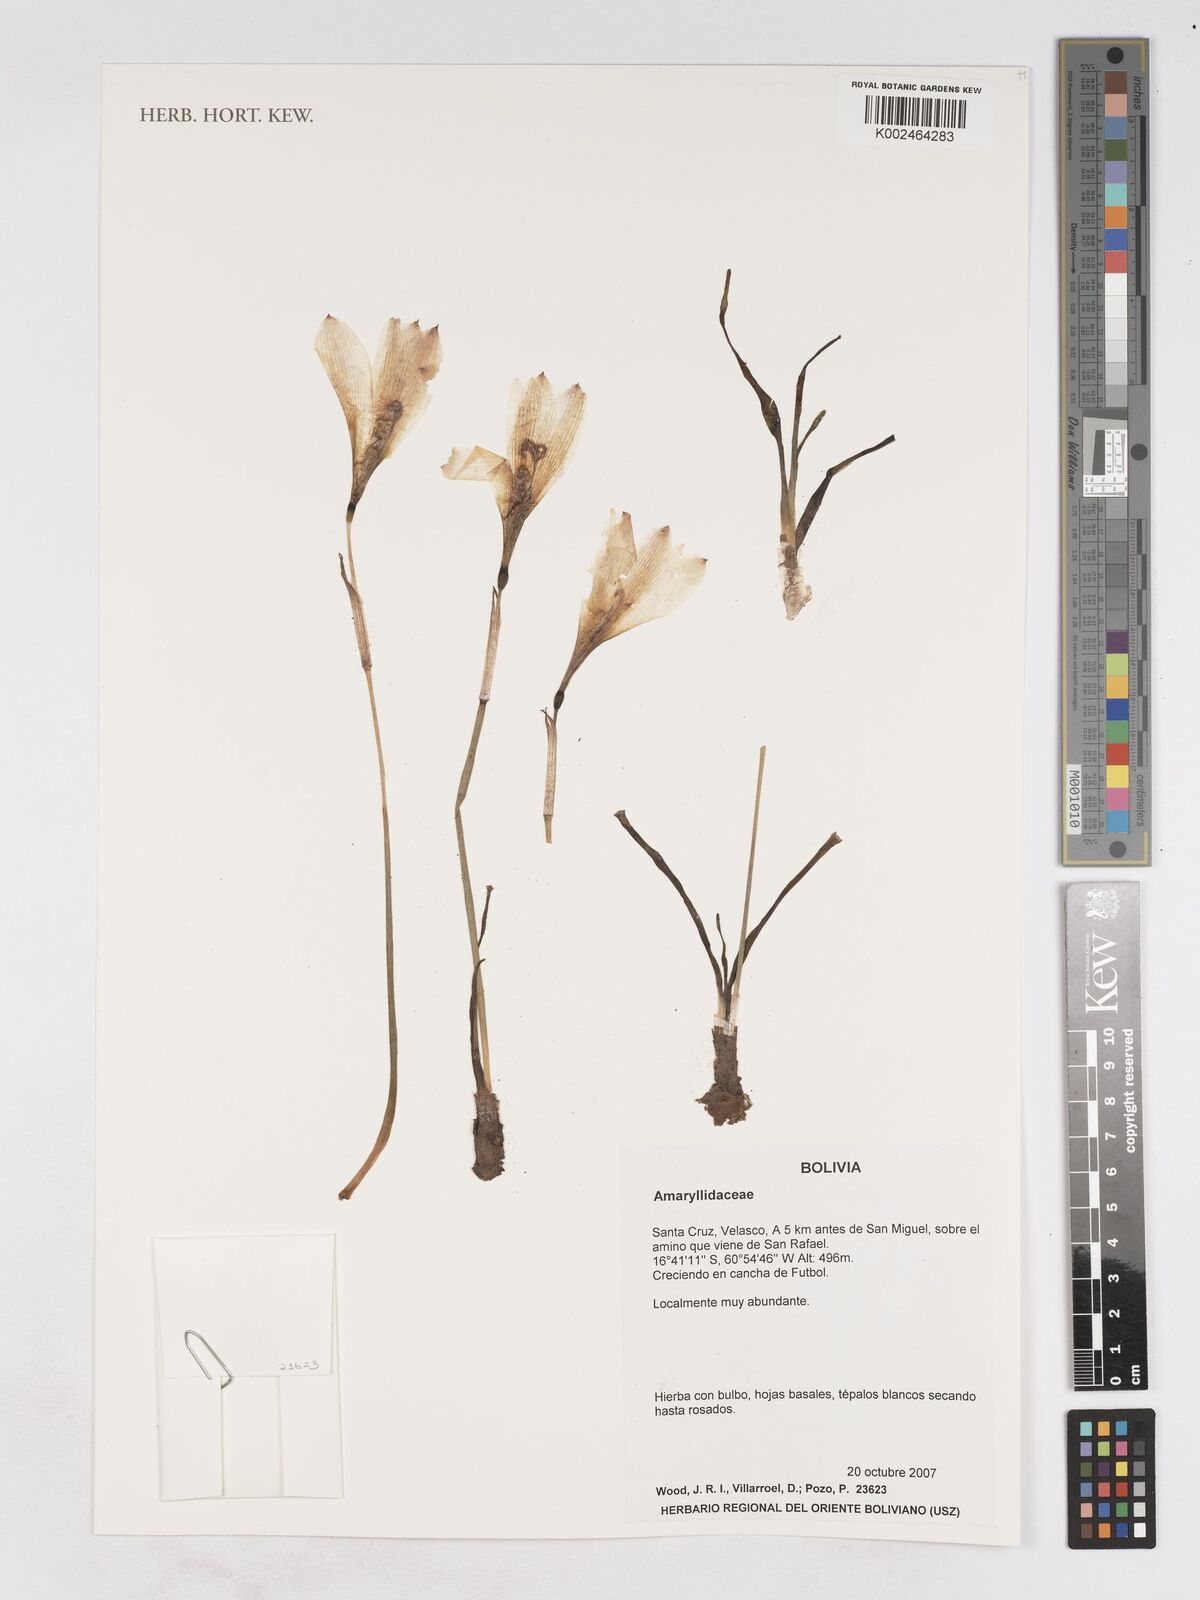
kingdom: Plantae
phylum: Tracheophyta
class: Liliopsida
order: Asparagales
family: Amaryllidaceae
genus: Zephyranthes
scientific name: Zephyranthes
